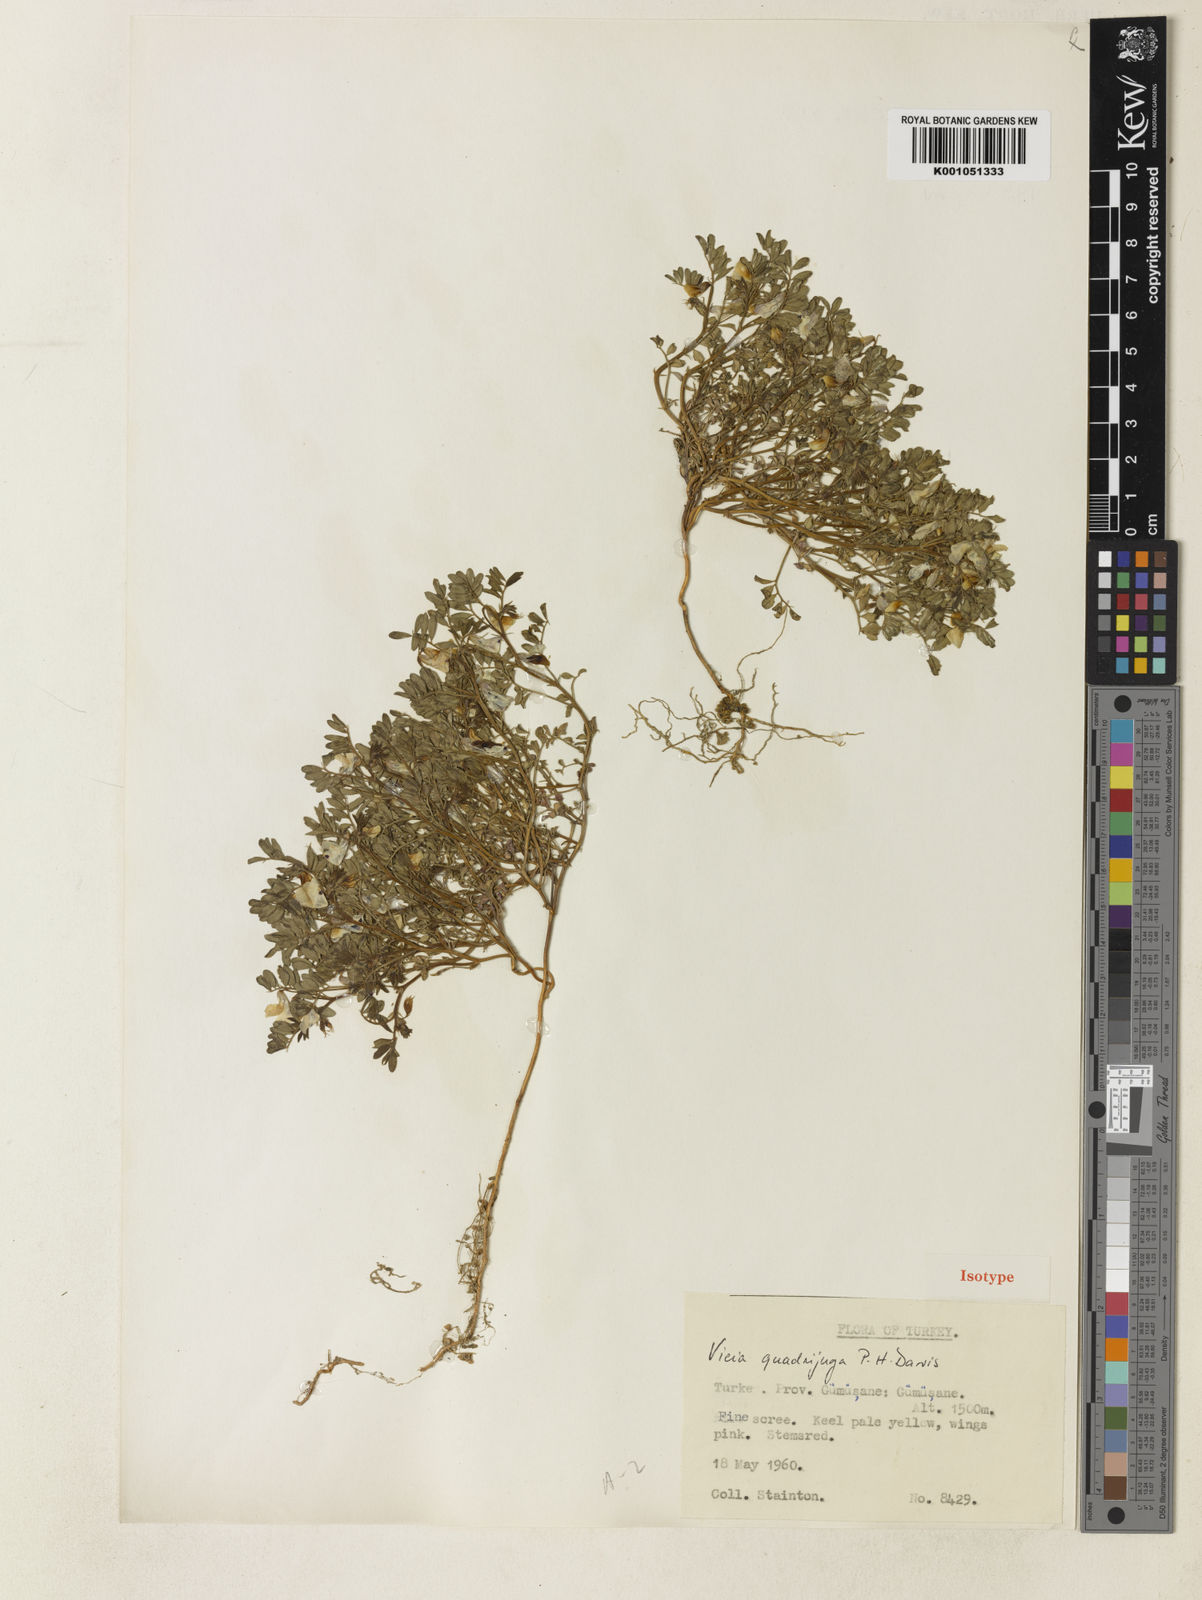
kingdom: Plantae
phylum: Tracheophyta
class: Magnoliopsida
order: Fabales
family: Fabaceae
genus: Vicia
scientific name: Vicia quadrijuga
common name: Quadrijugous vetch
